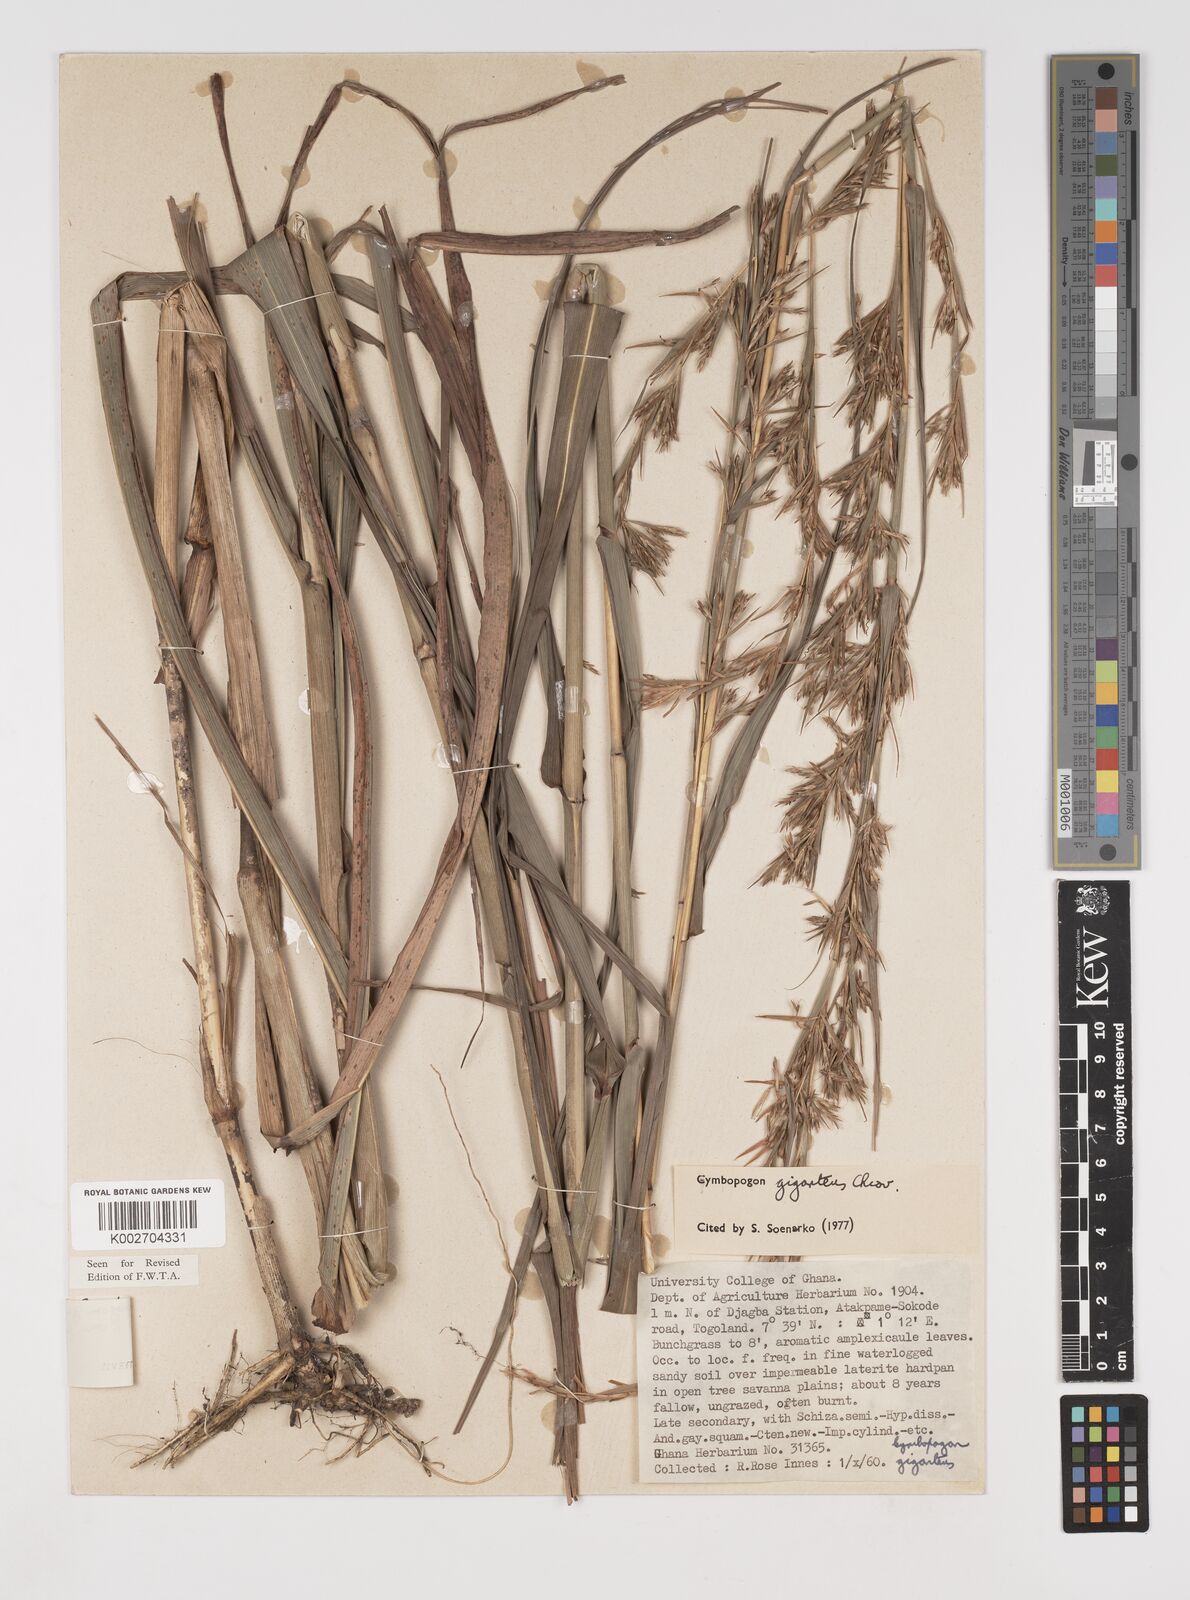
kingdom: Plantae
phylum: Tracheophyta
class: Liliopsida
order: Poales
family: Poaceae
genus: Cymbopogon
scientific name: Cymbopogon giganteus
